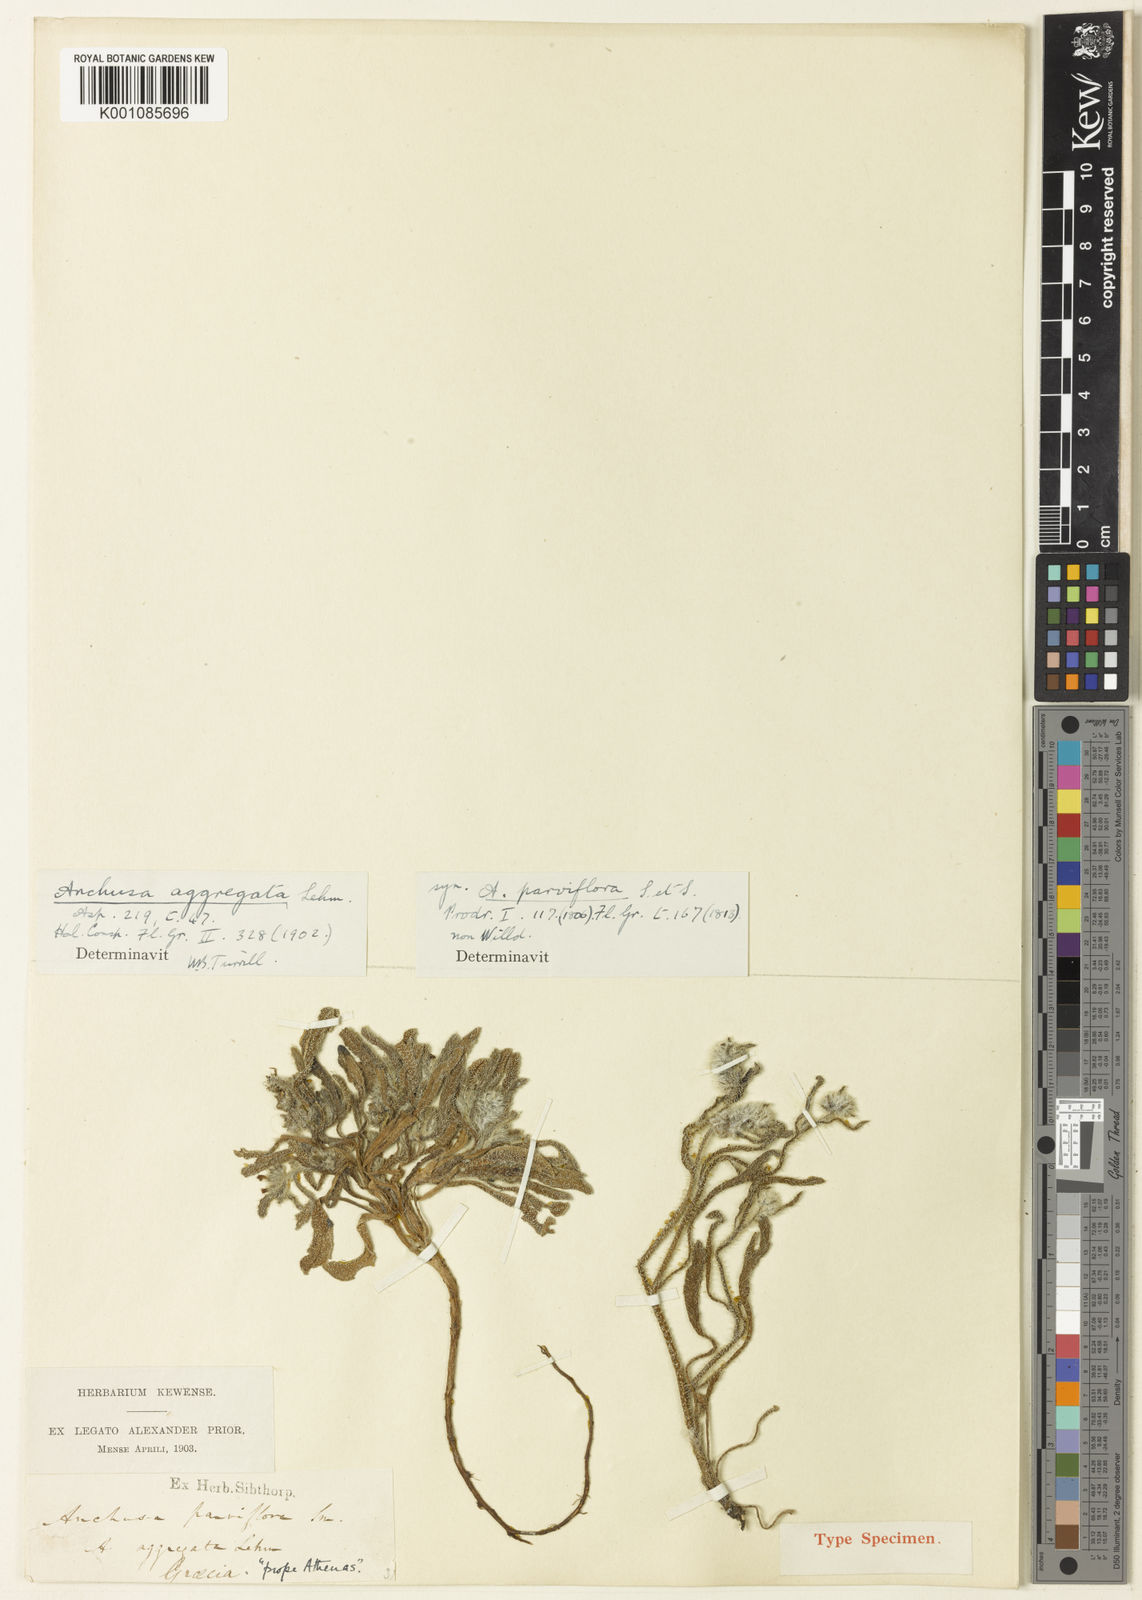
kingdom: Plantae
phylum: Tracheophyta
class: Magnoliopsida
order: Boraginales
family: Boraginaceae
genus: Hormuzakia
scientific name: Hormuzakia aggregata
